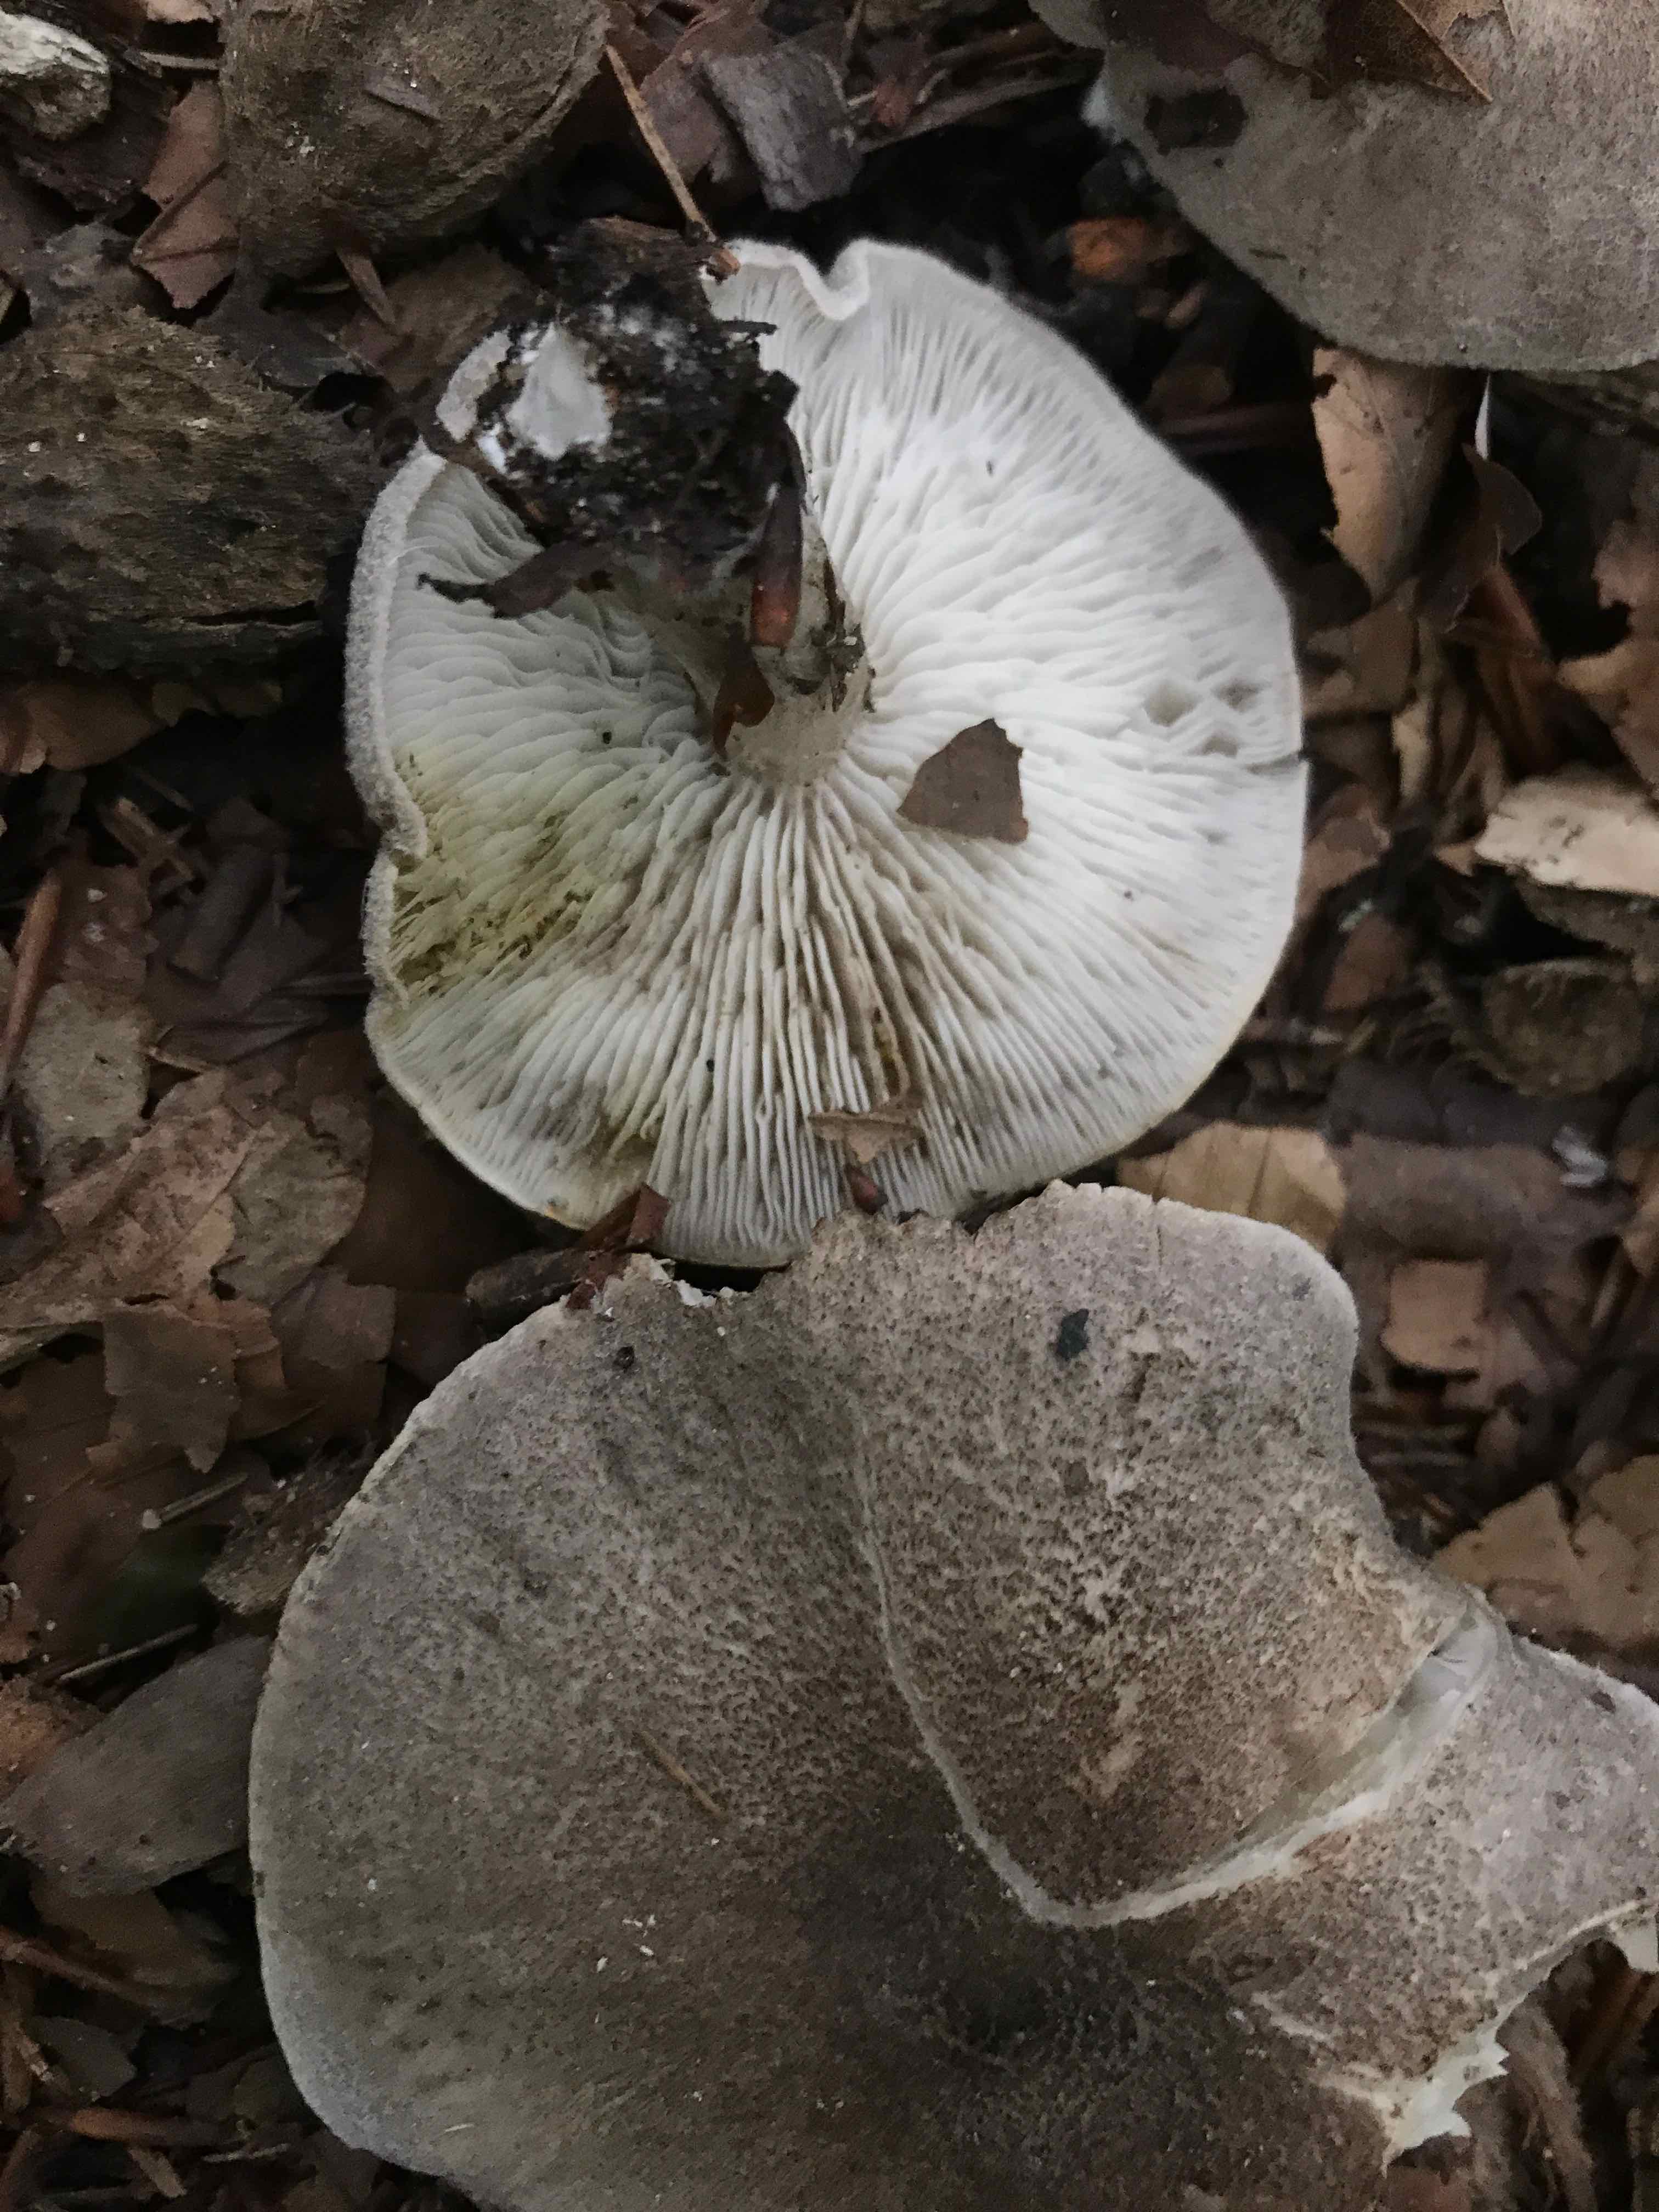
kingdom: Fungi
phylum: Basidiomycota
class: Agaricomycetes
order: Agaricales
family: Tricholomataceae
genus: Tricholoma
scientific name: Tricholoma scalpturatum
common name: gulplettet ridderhat
